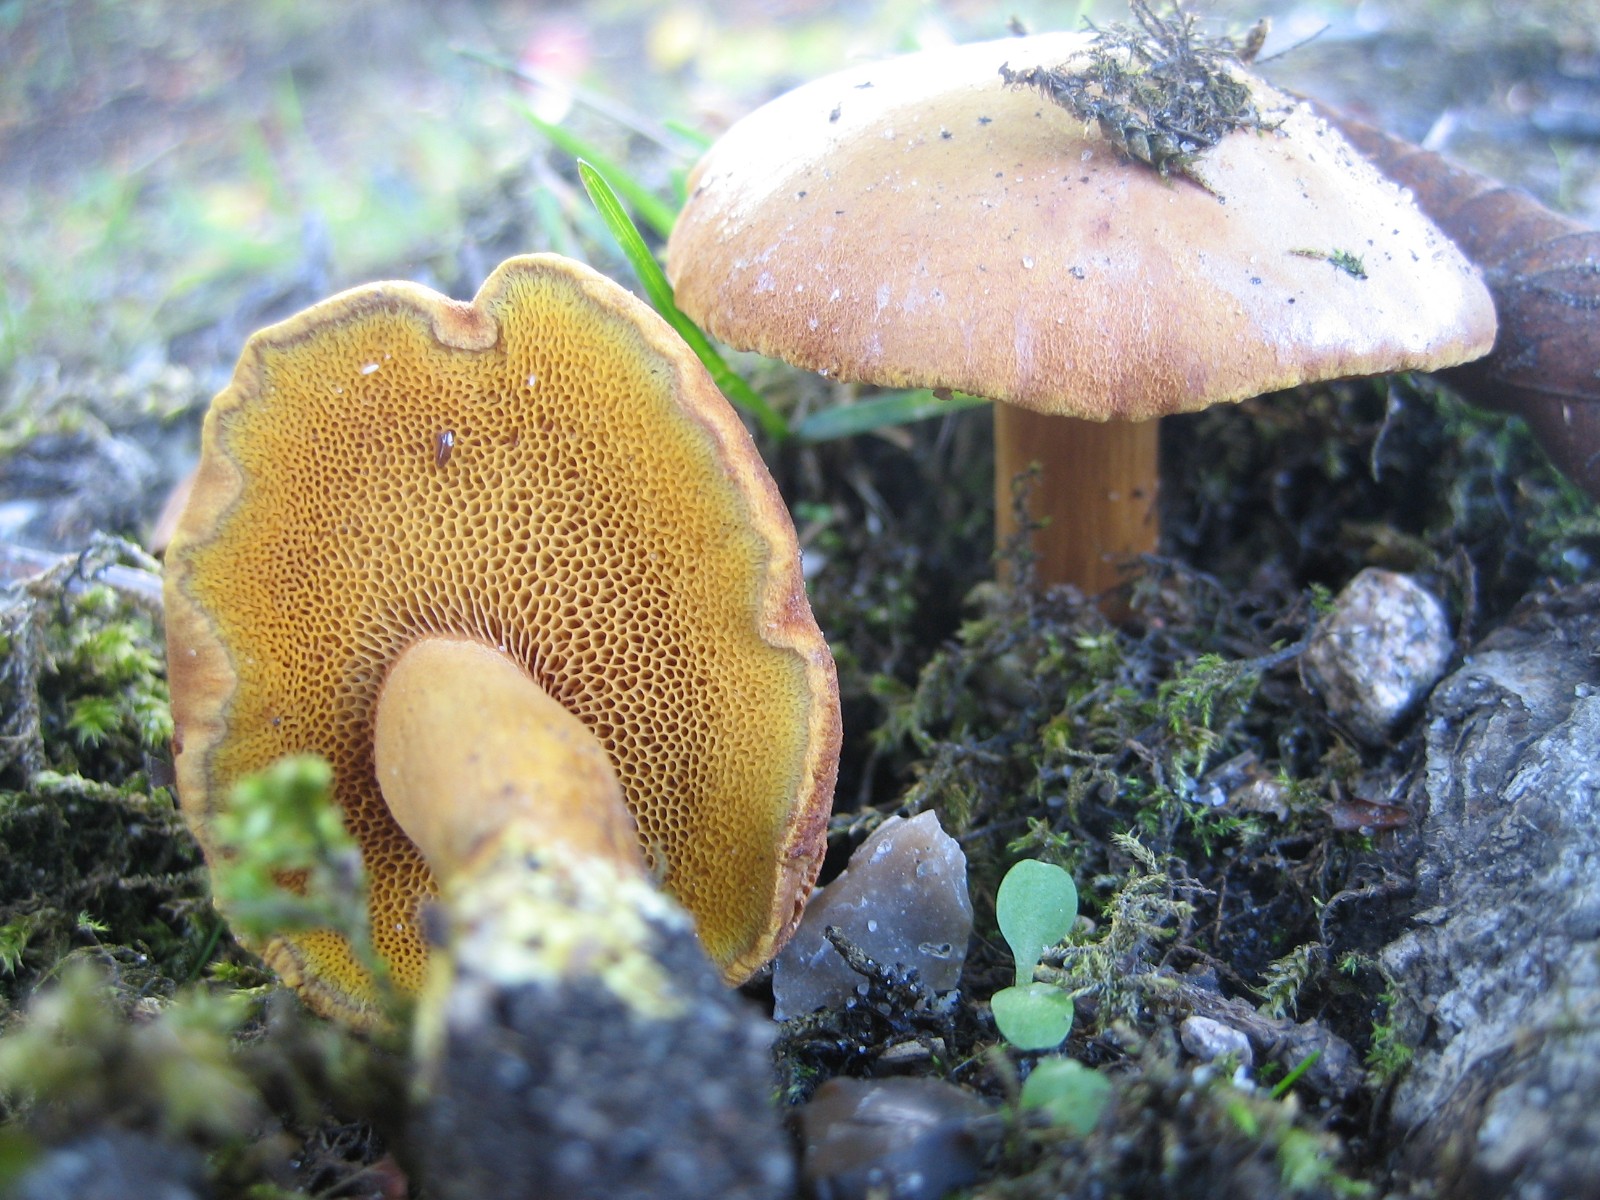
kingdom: Fungi
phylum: Basidiomycota
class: Agaricomycetes
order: Boletales
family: Boletaceae
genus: Chalciporus
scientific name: Chalciporus piperatus
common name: peberrørhat
